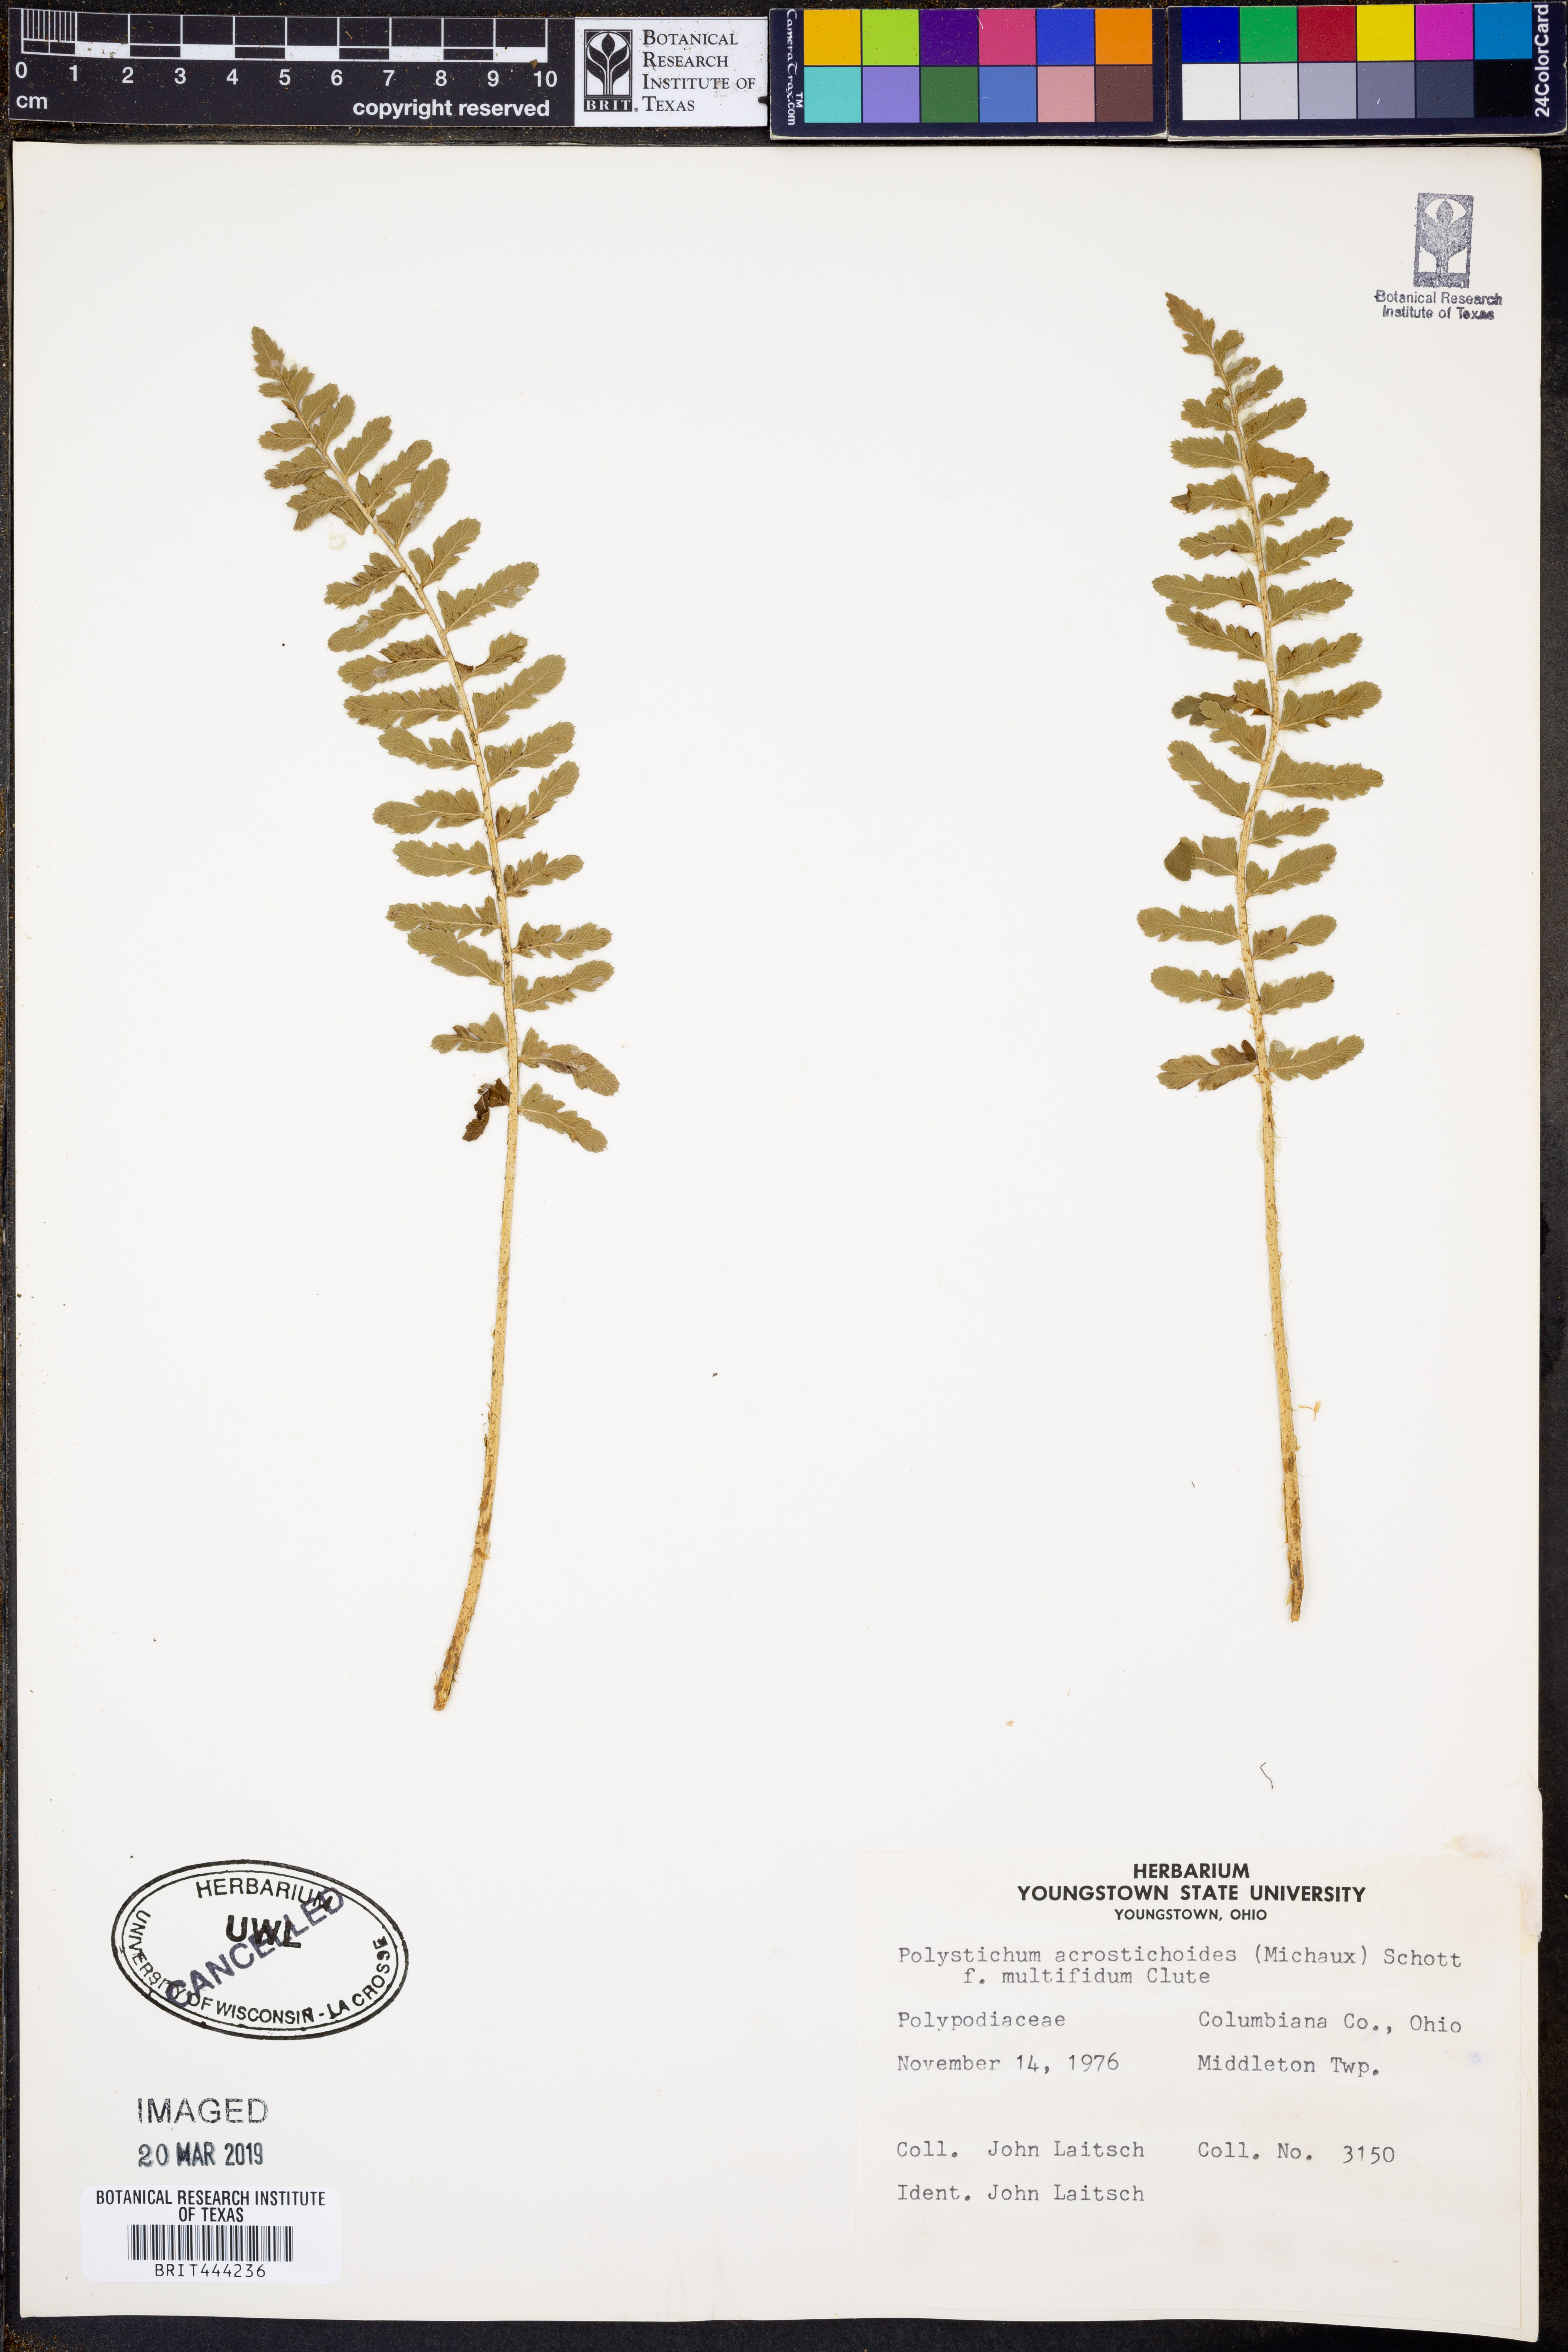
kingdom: Plantae
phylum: Tracheophyta
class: Polypodiopsida
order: Polypodiales
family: Dryopteridaceae
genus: Polystichum
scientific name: Polystichum acrostichoides
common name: Christmas fern
